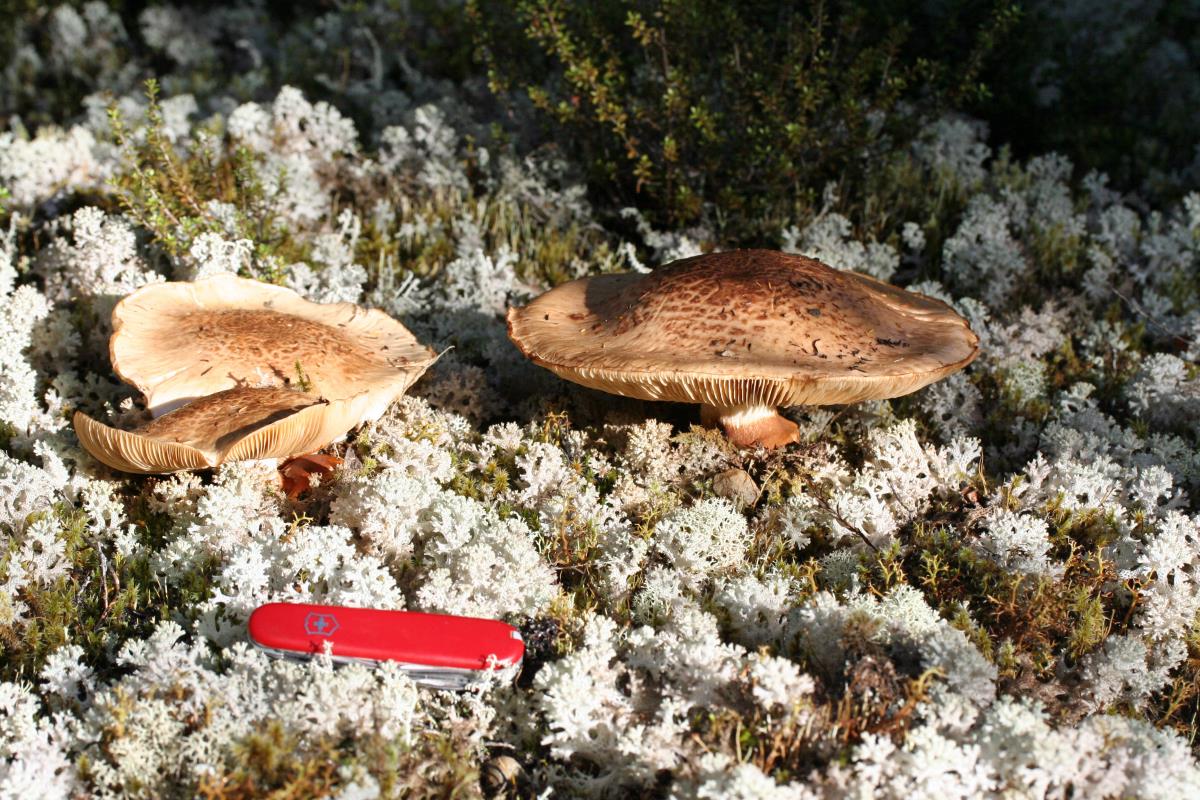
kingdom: Fungi
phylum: Basidiomycota
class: Agaricomycetes
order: Agaricales
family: Hymenogastraceae
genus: Hebeloma
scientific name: Hebeloma victoriense
